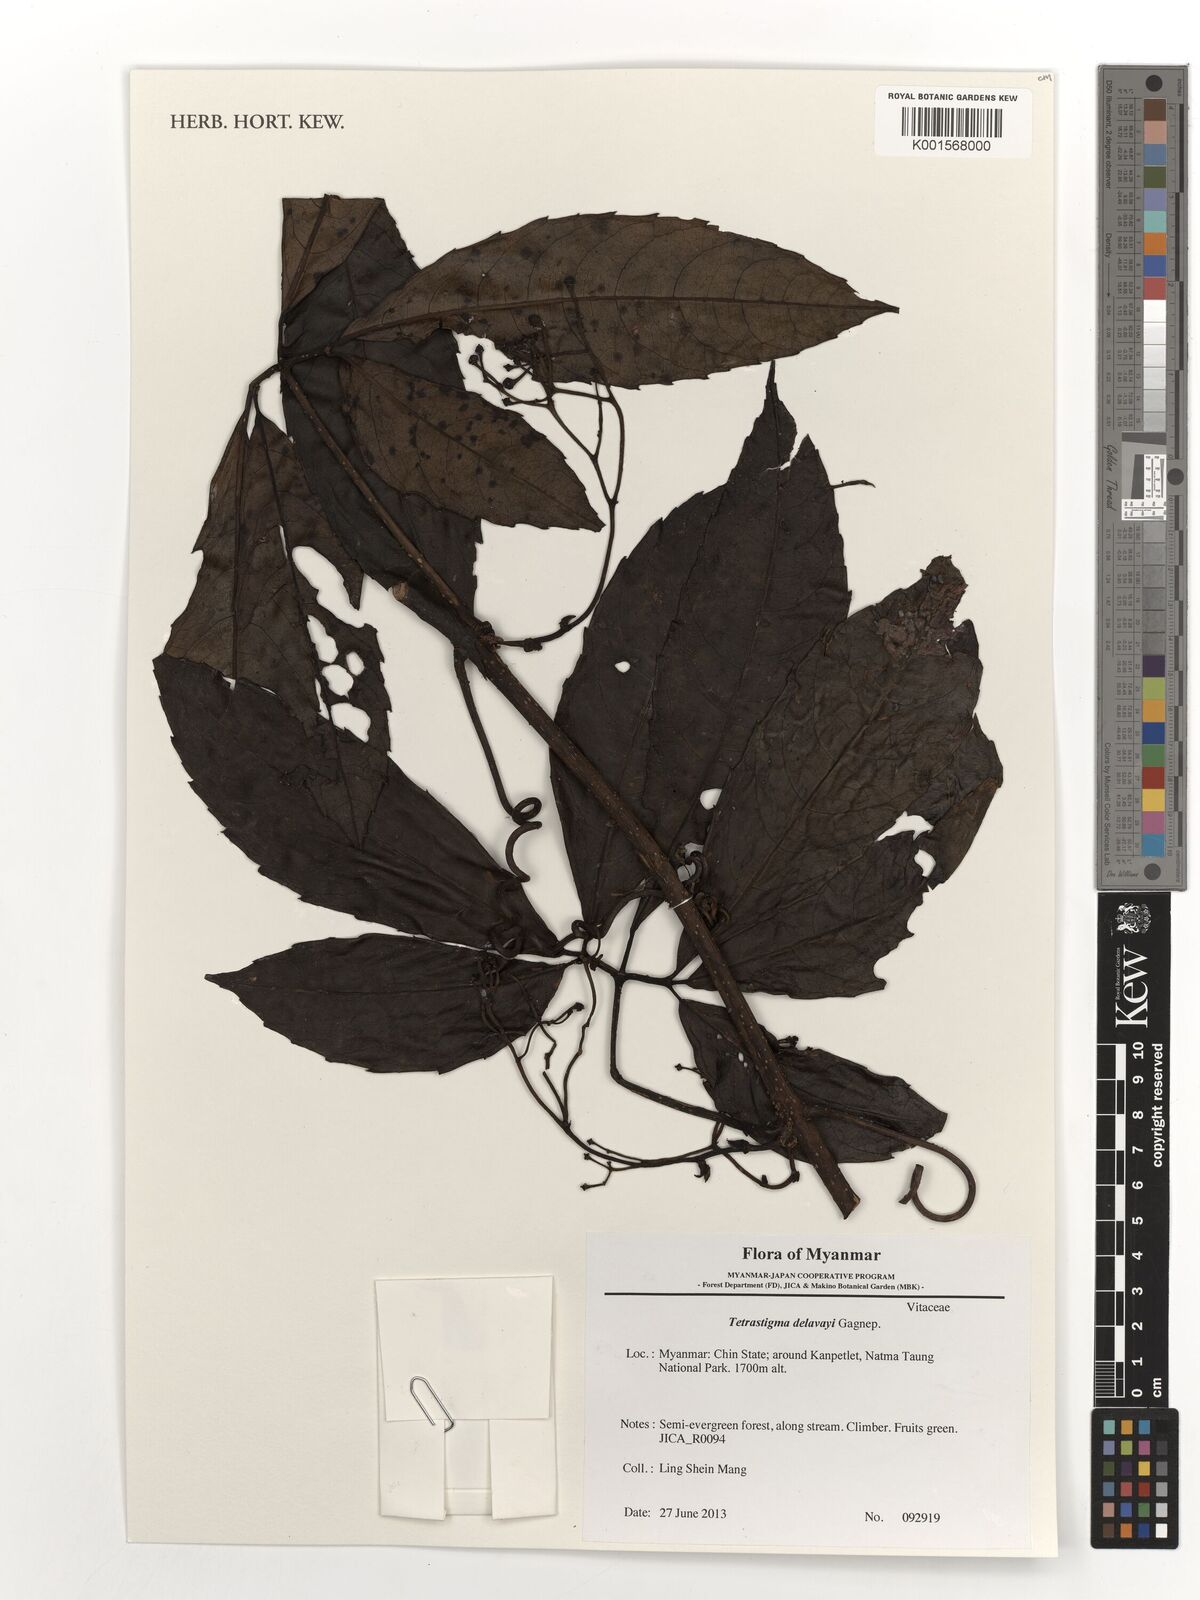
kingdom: Plantae
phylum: Tracheophyta
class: Magnoliopsida
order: Vitales
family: Vitaceae
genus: Tetrastigma
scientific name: Tetrastigma delavayi
